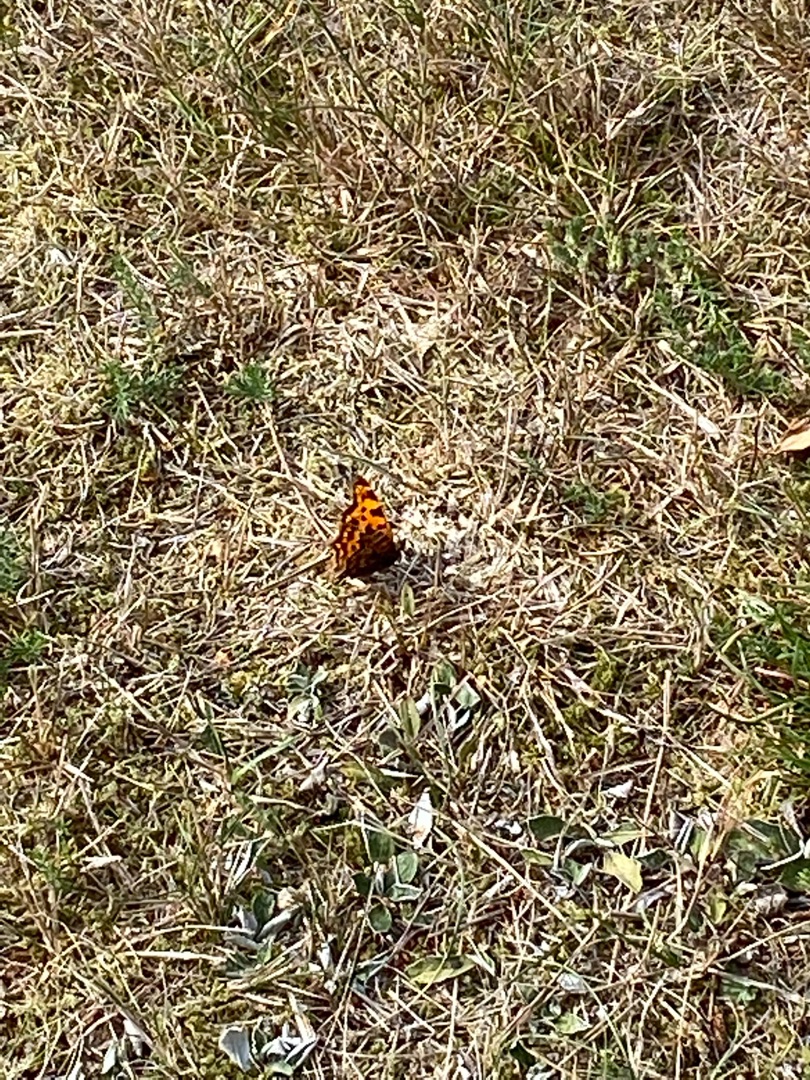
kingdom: Animalia
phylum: Arthropoda
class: Insecta
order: Lepidoptera
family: Nymphalidae
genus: Polygonia
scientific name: Polygonia c-album
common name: Det hvide C
